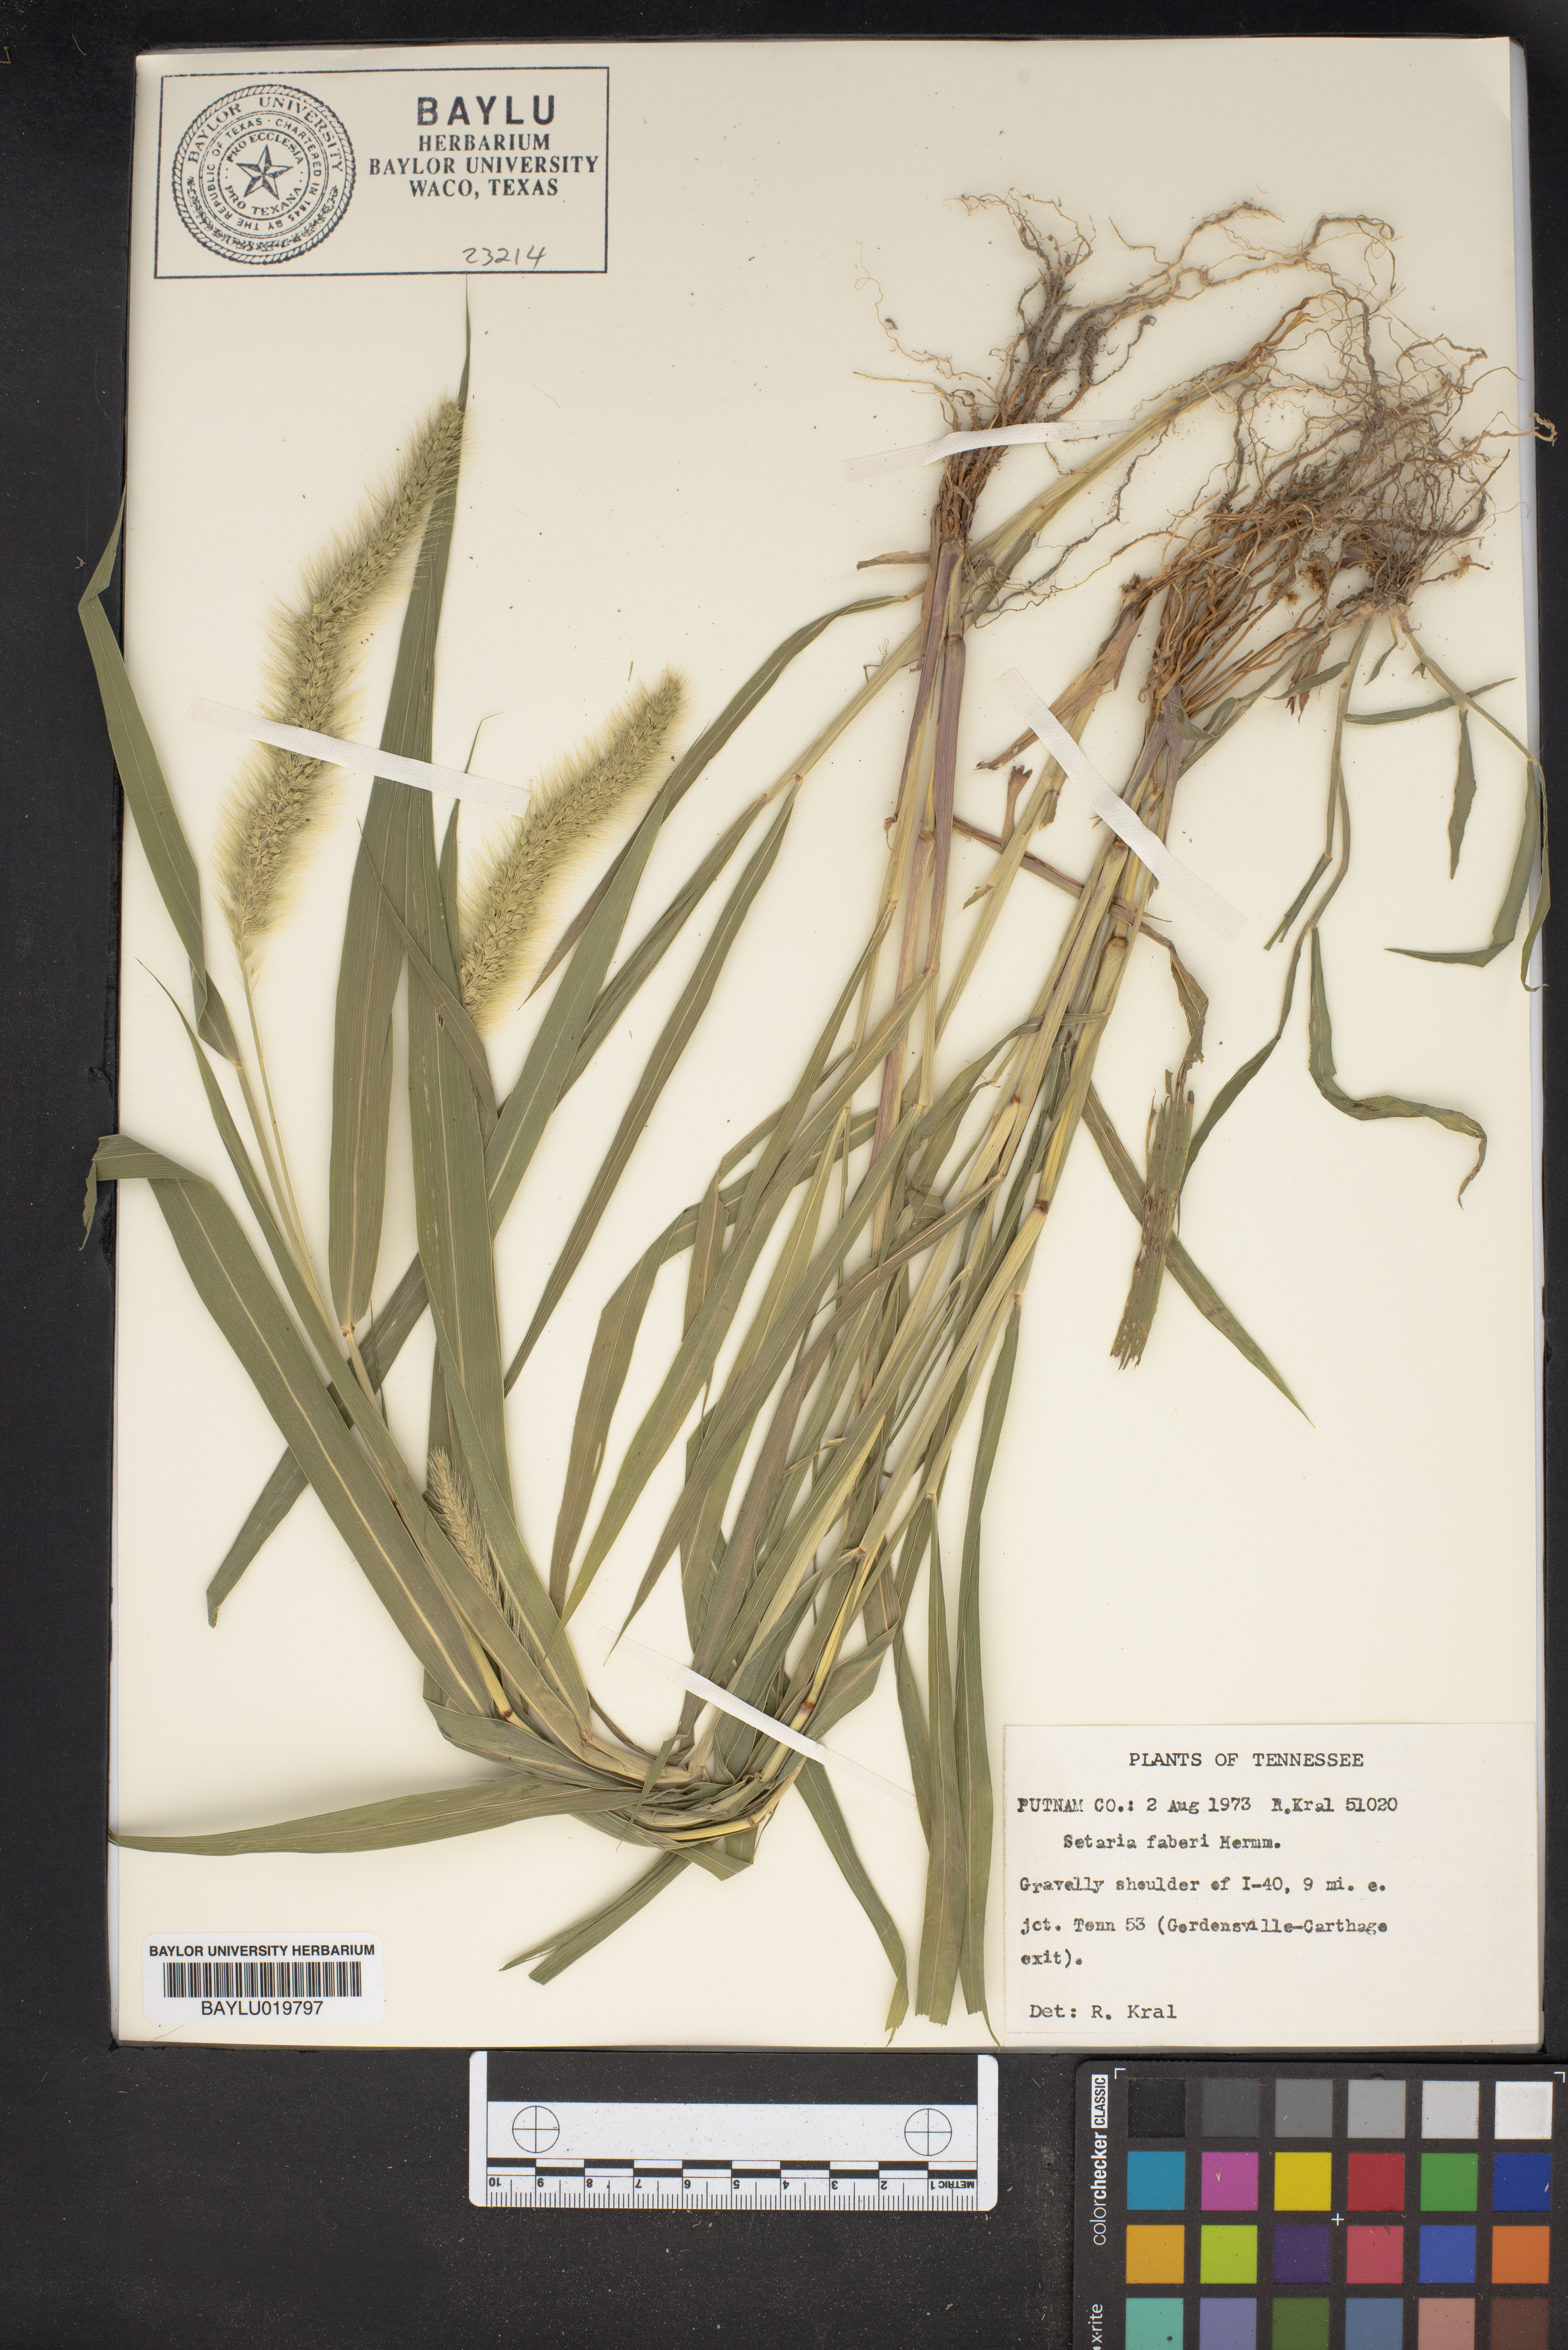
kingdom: Plantae
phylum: Tracheophyta
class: Liliopsida
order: Poales
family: Poaceae
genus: Setaria
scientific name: Setaria faberi
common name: Nodding bristle-grass
